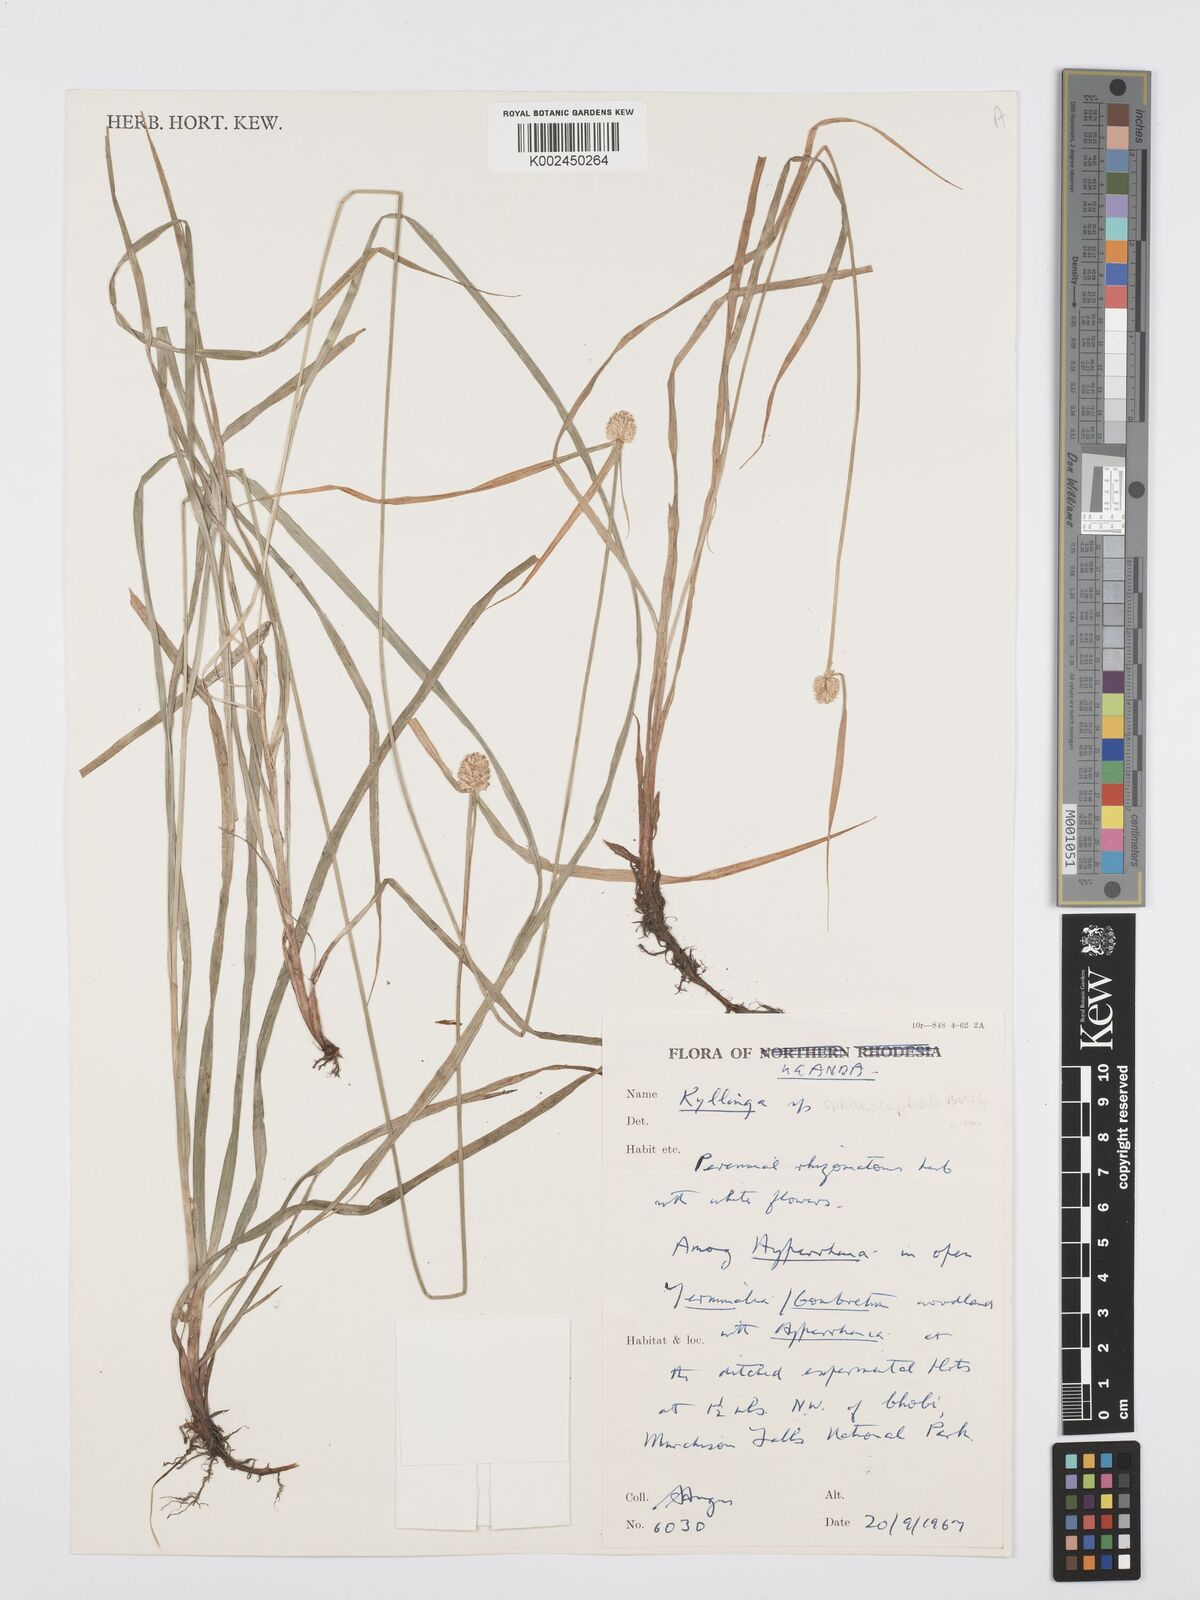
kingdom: Plantae
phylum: Tracheophyta
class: Liliopsida
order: Poales
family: Cyperaceae
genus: Cyperus
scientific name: Cyperus
